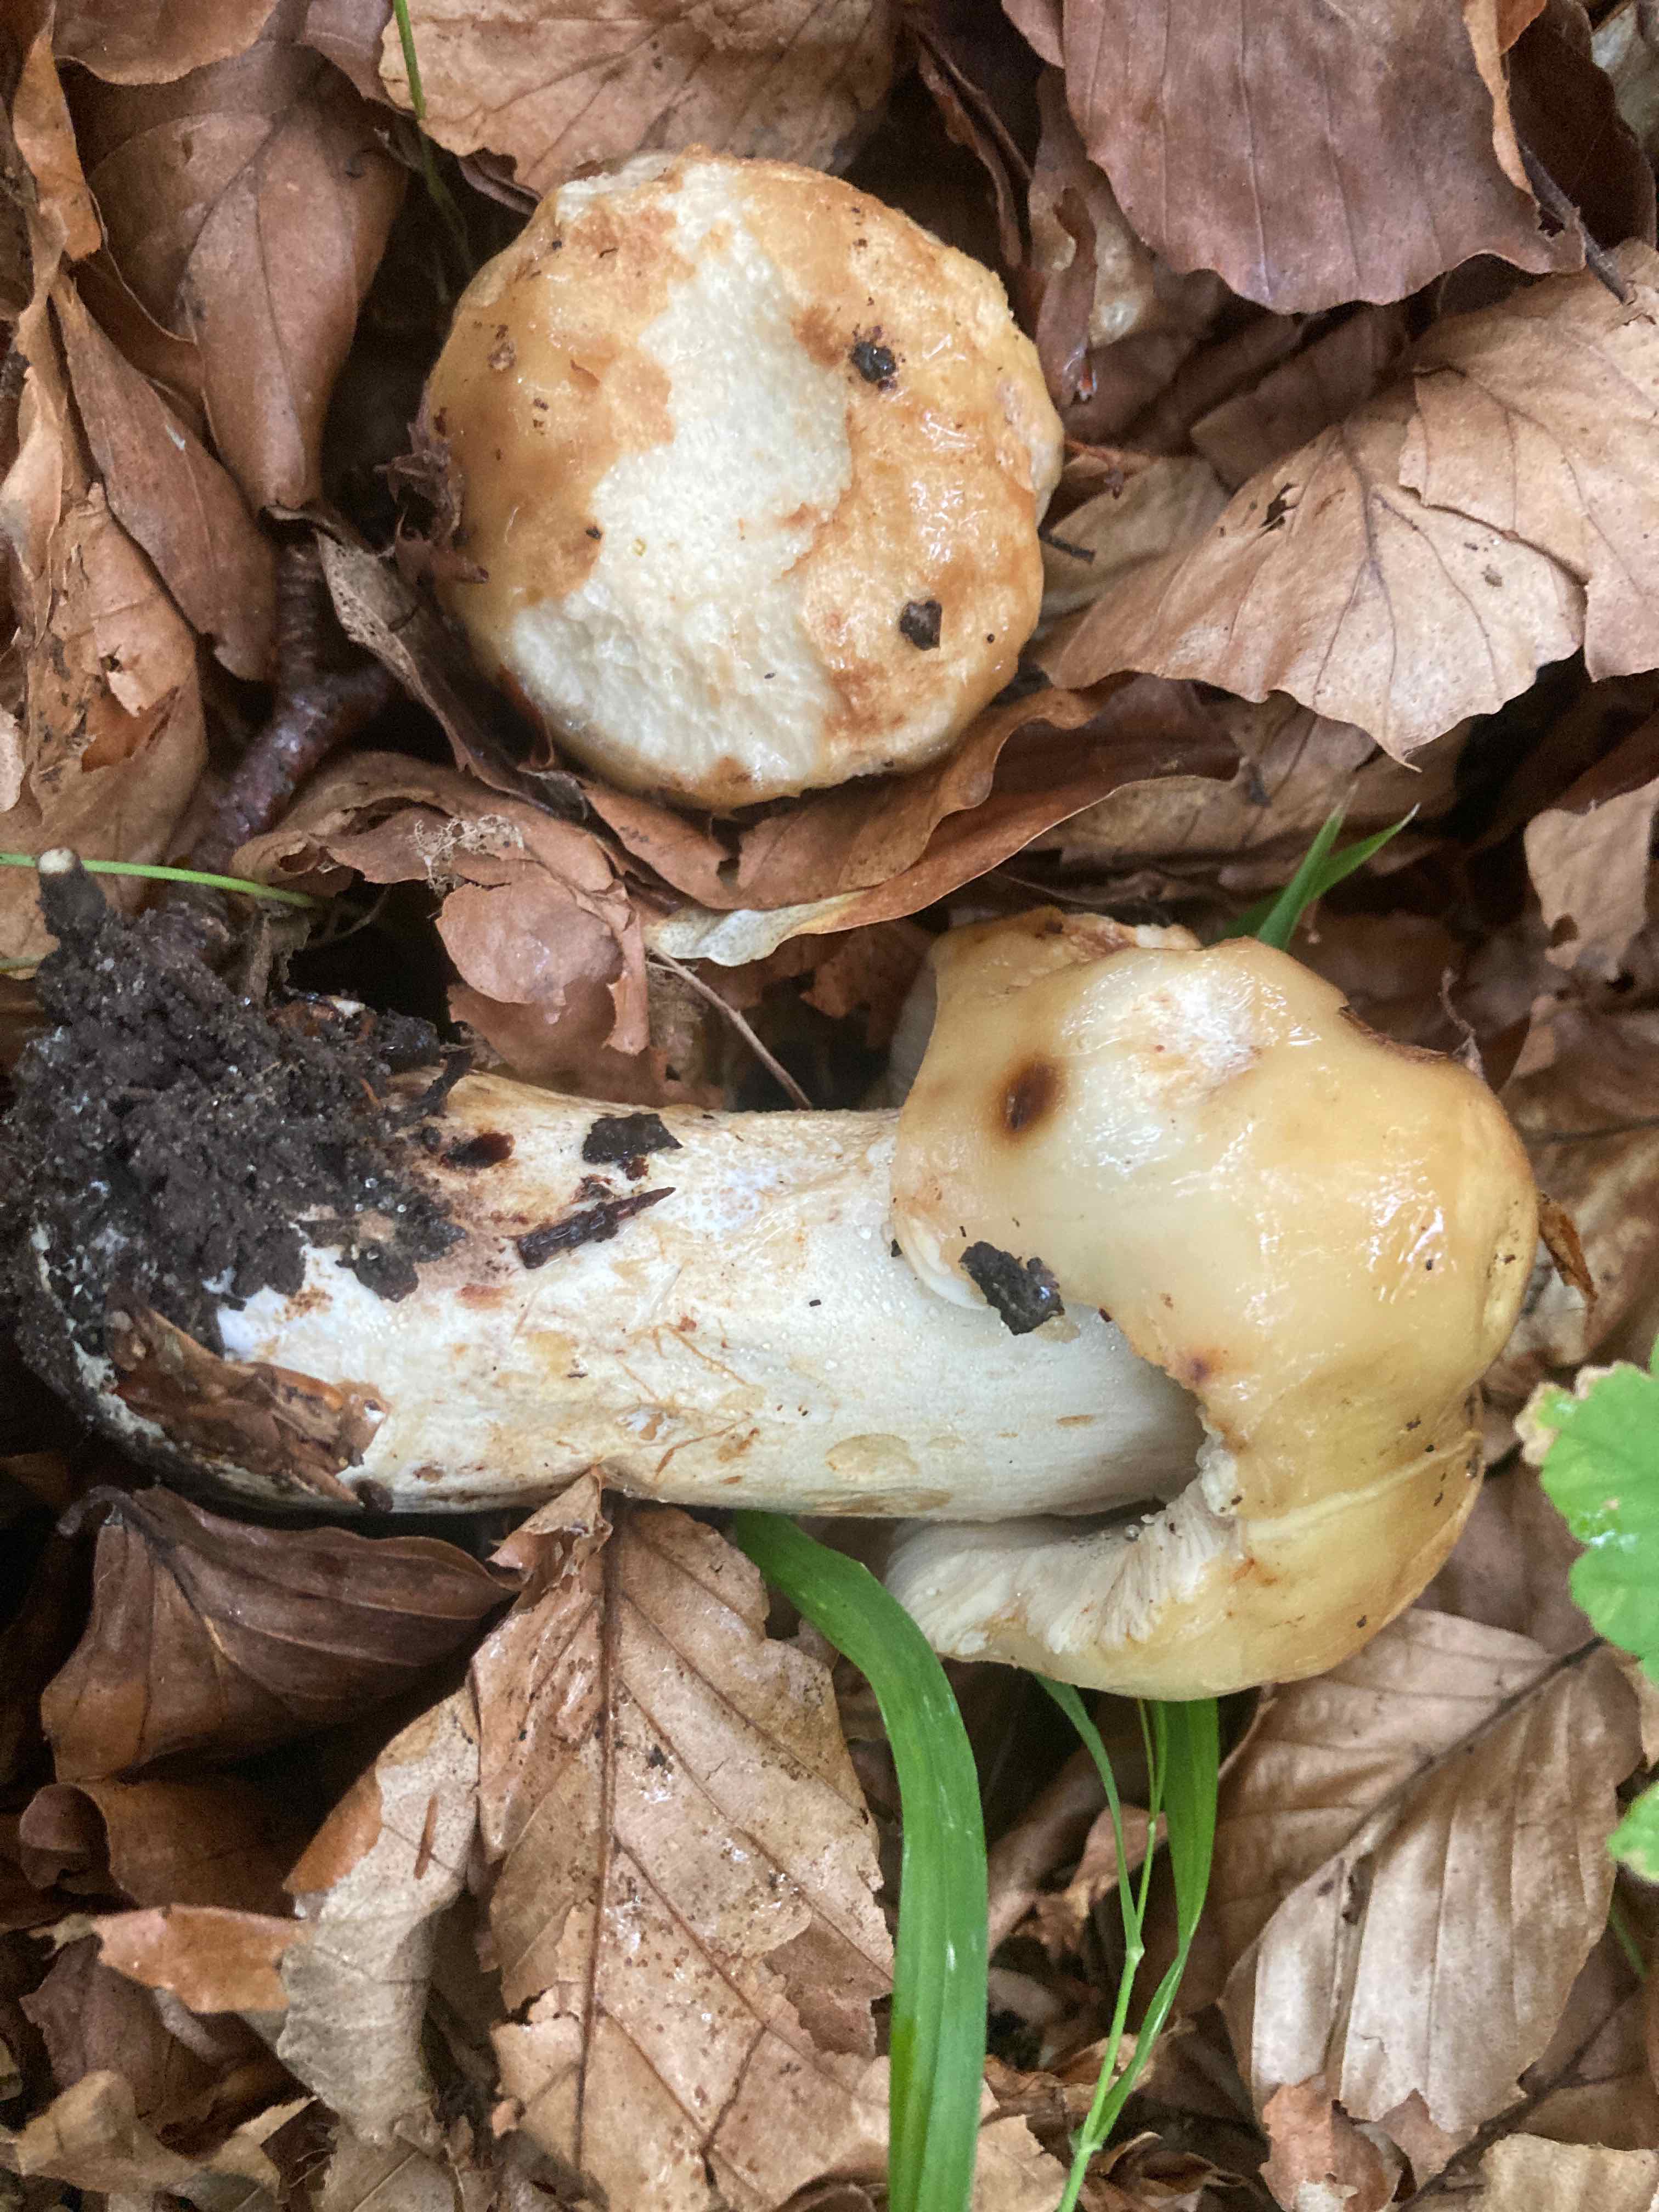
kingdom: Fungi
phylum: Basidiomycota
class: Agaricomycetes
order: Russulales
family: Russulaceae
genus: Russula
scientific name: Russula foetens
